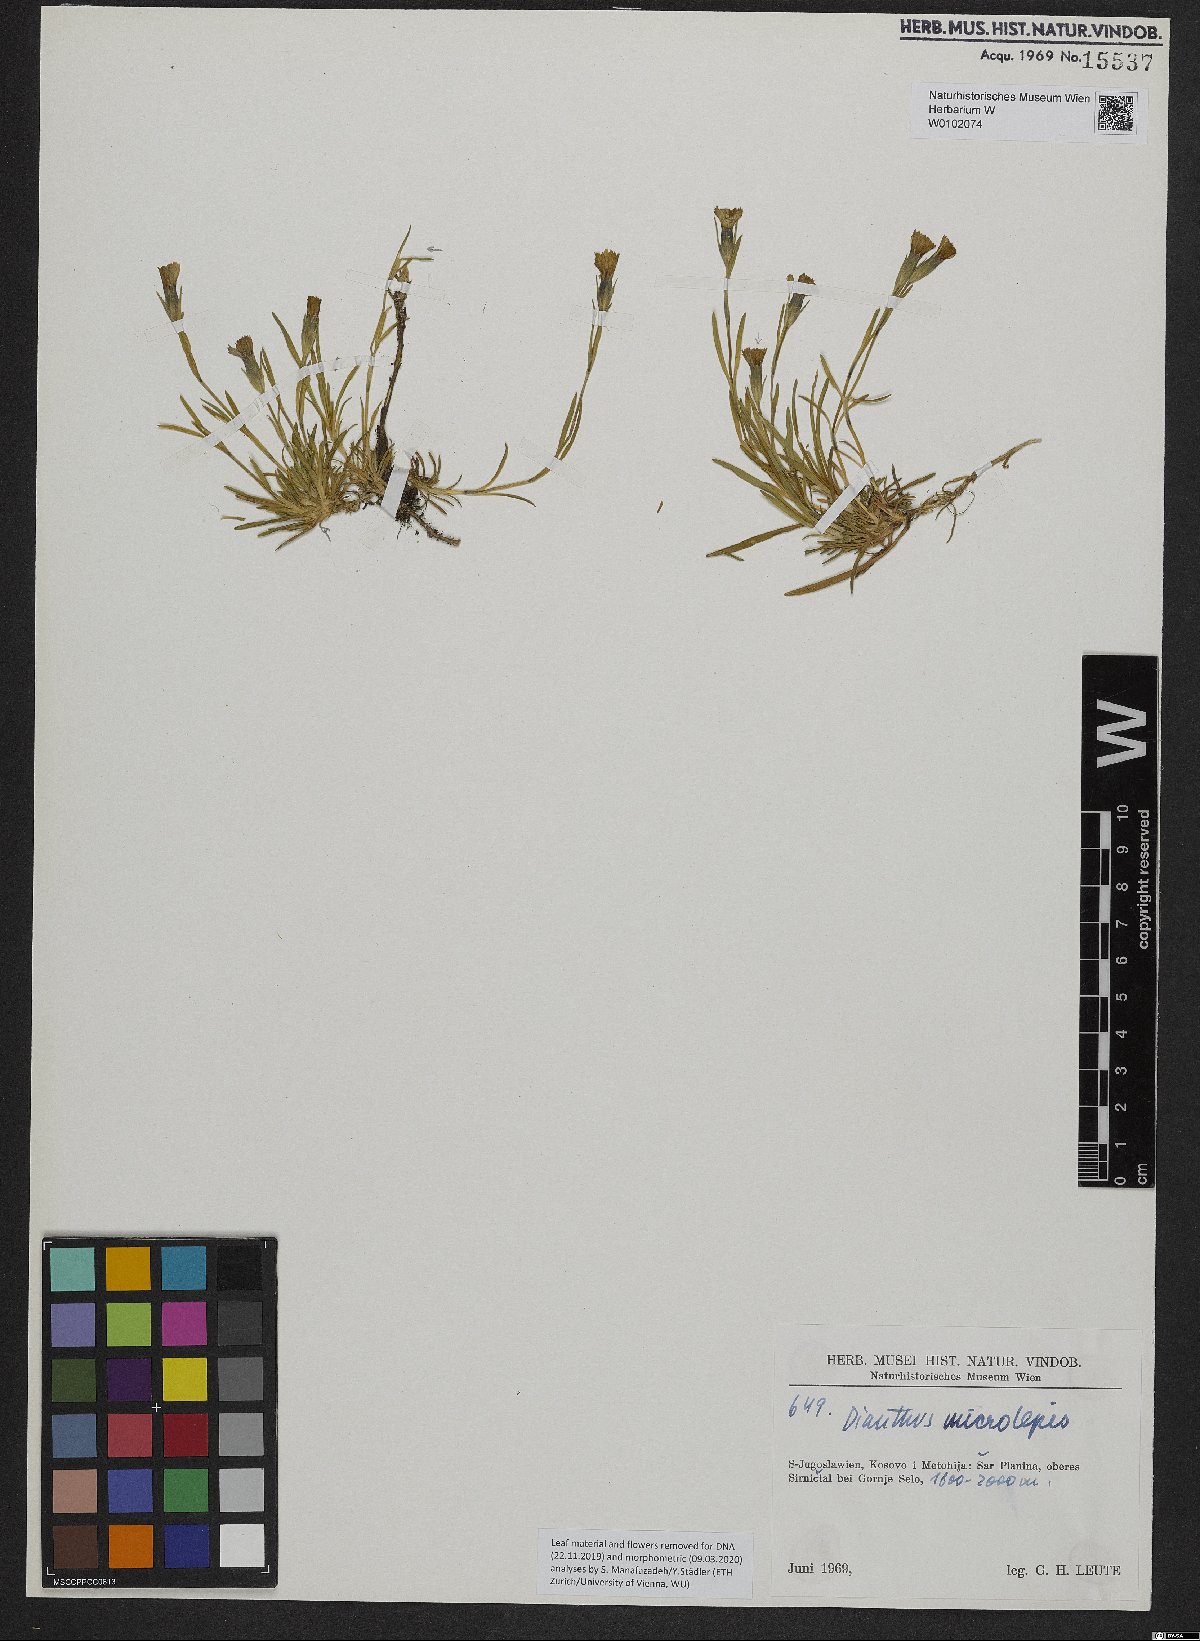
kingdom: Plantae
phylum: Tracheophyta
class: Magnoliopsida
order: Caryophyllales
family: Caryophyllaceae
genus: Dianthus
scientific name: Dianthus microlepis
